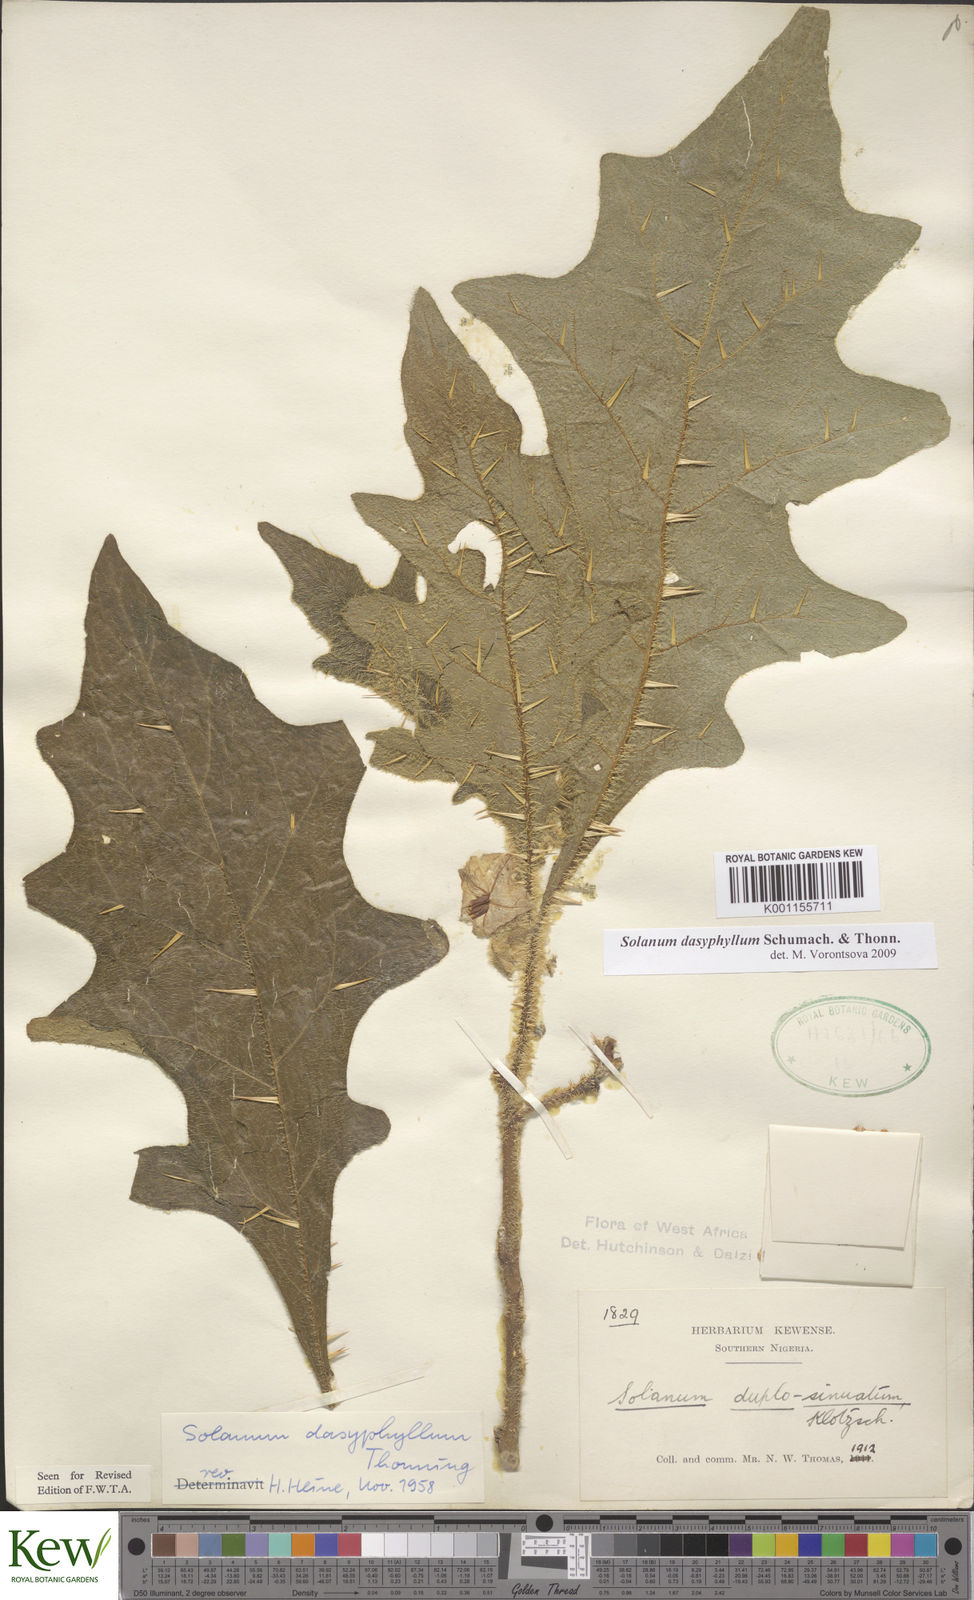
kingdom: Plantae
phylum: Tracheophyta
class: Magnoliopsida
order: Solanales
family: Solanaceae
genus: Solanum
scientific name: Solanum dasyphyllum
